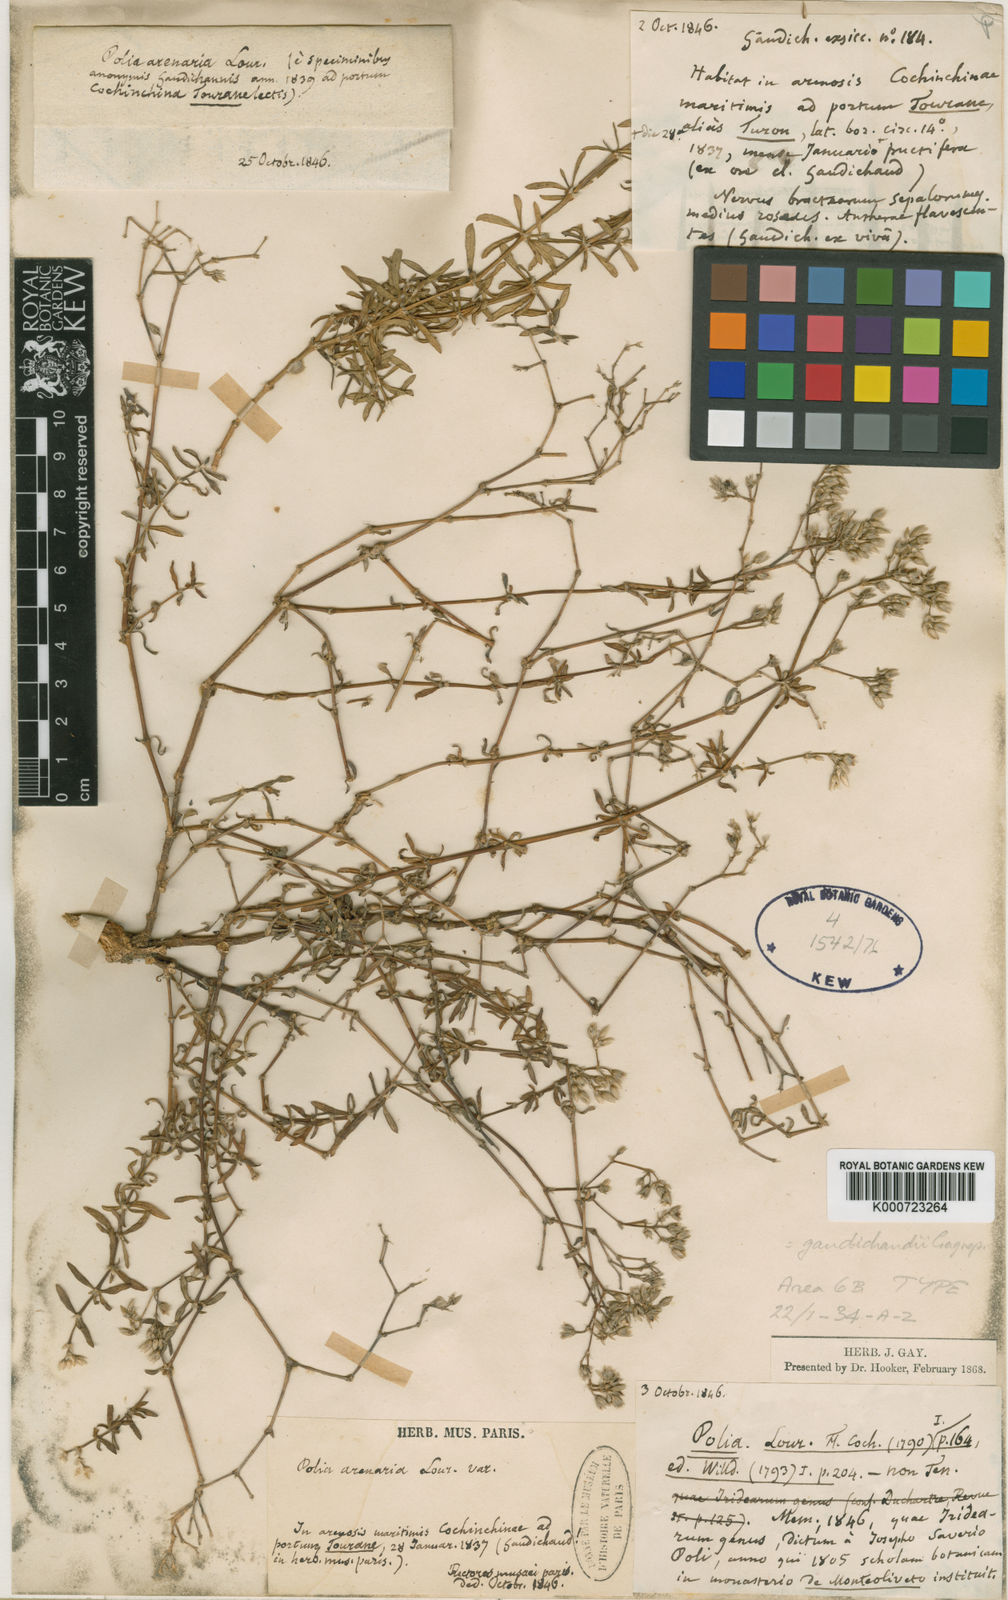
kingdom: Plantae
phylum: Tracheophyta
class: Magnoliopsida
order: Caryophyllales
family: Caryophyllaceae
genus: Polycarpaea
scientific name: Polycarpaea gaudichaudii
